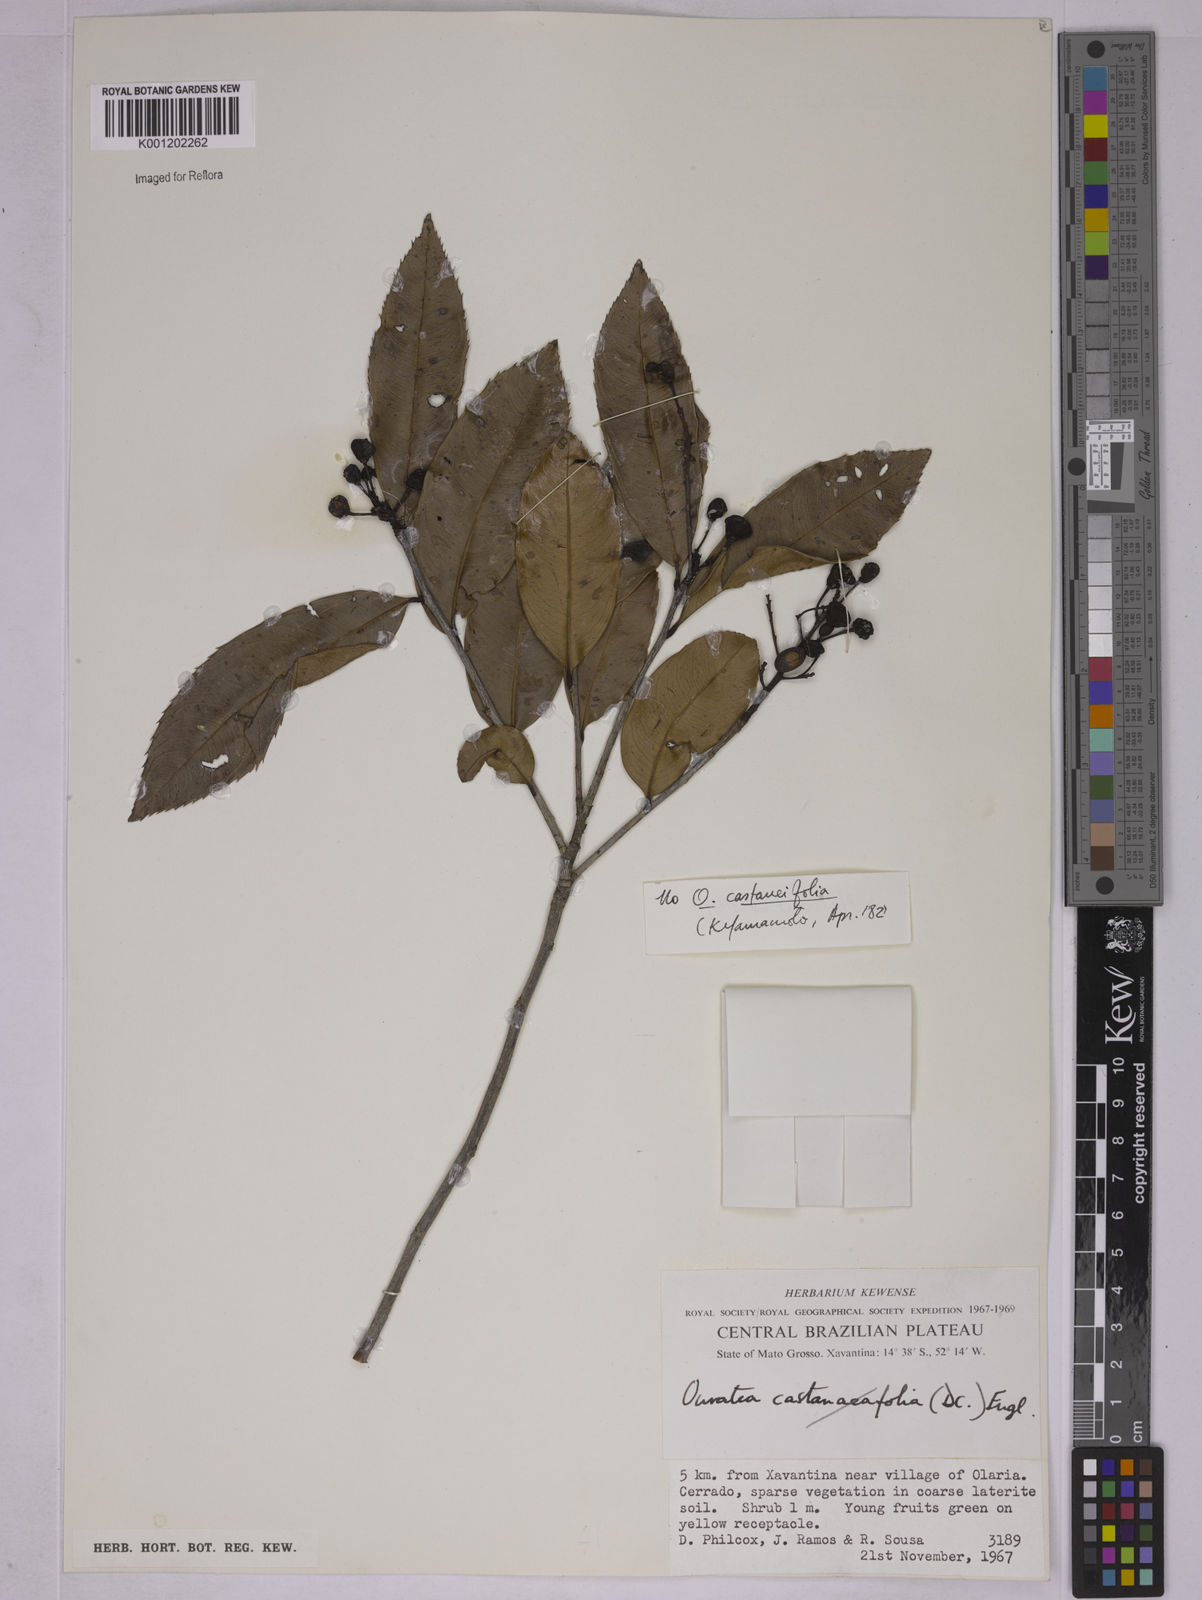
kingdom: Plantae
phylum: Tracheophyta
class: Magnoliopsida
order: Malpighiales
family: Ochnaceae
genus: Ouratea
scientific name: Ouratea
